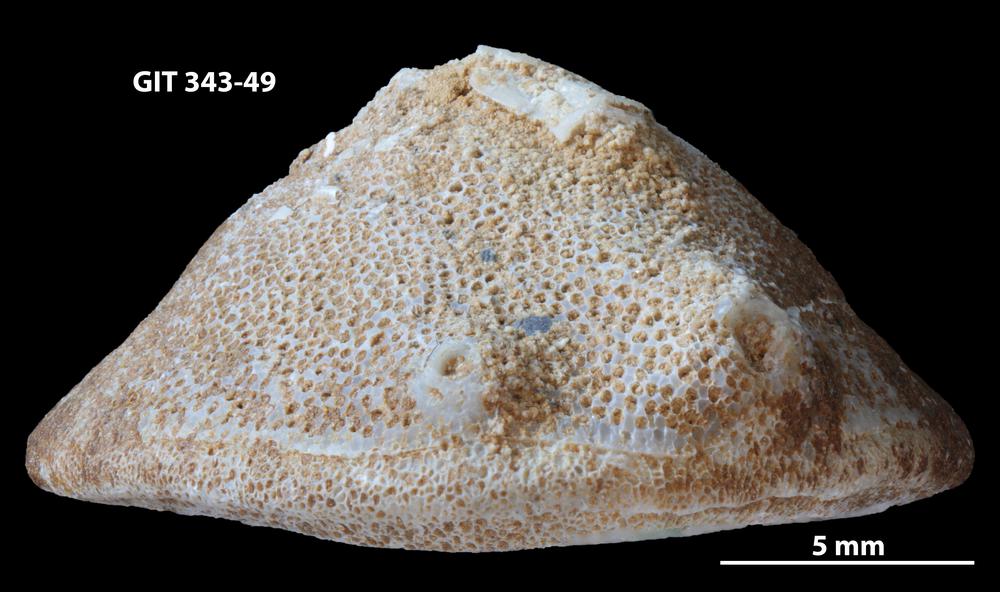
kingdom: Animalia
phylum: Bryozoa
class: Stenolaemata
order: Trepostomatida
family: Monticuliporidae
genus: Mesotrypa
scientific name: Mesotrypa orientalis
